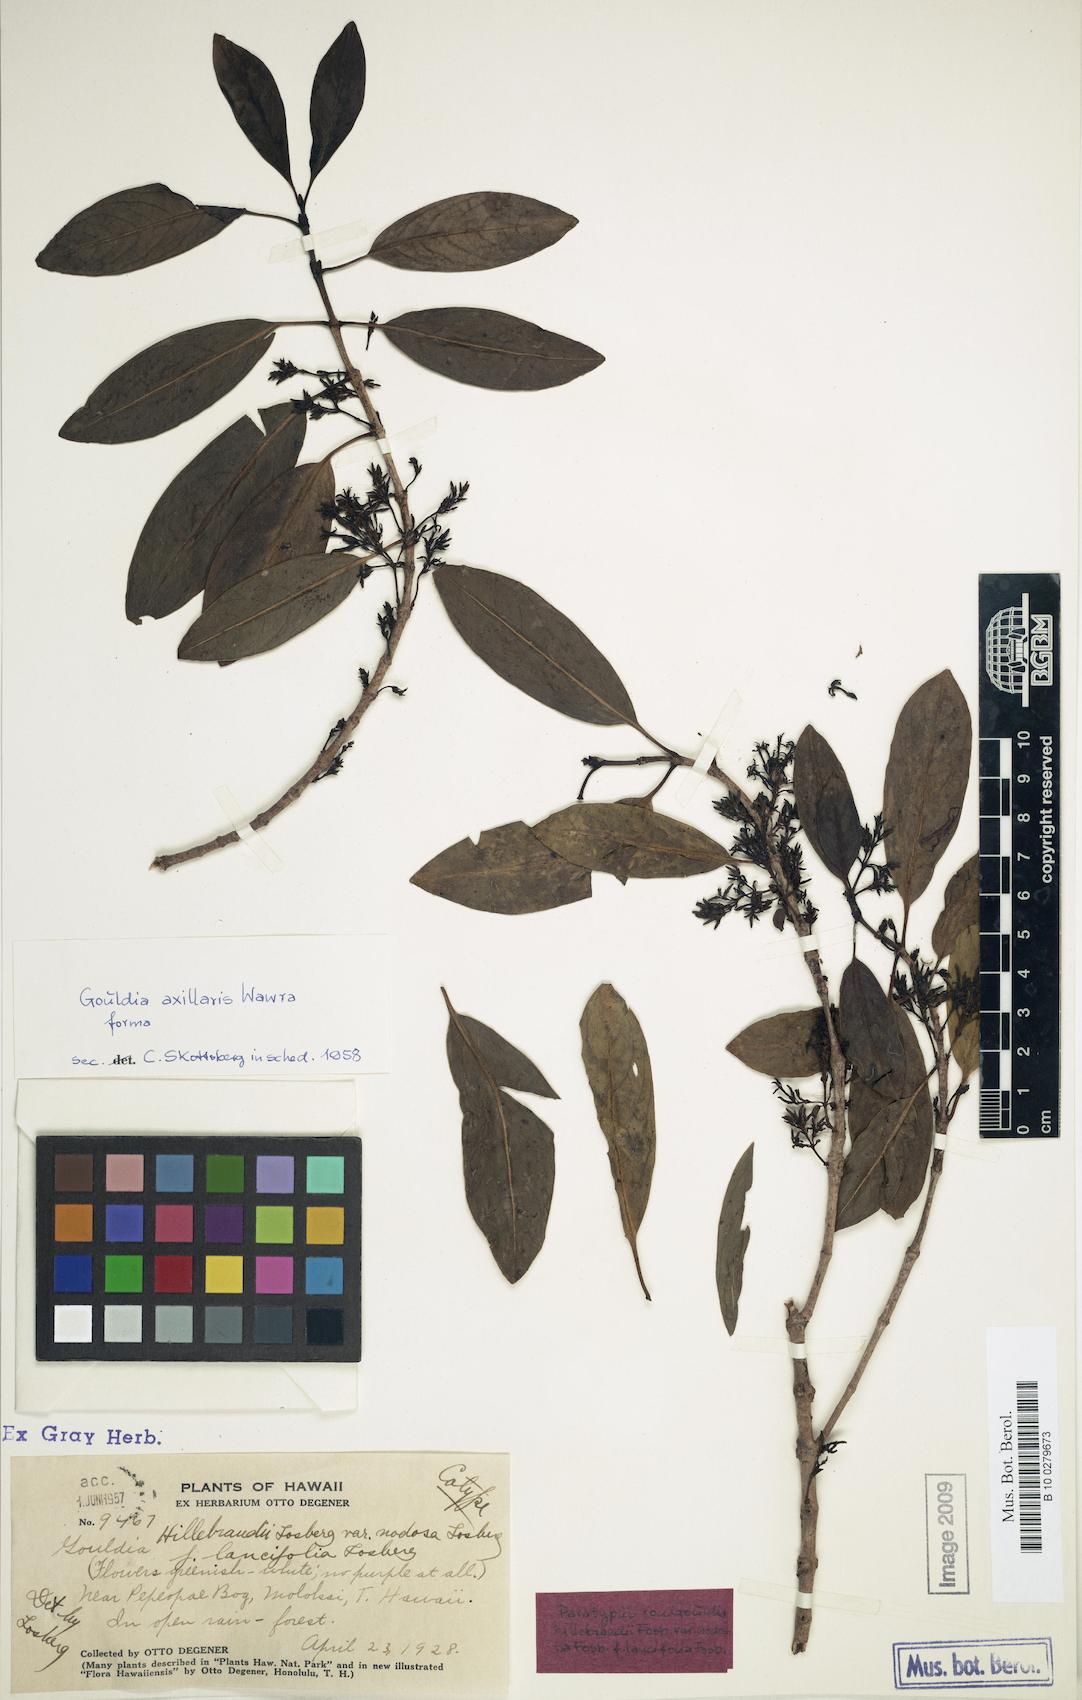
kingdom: Plantae
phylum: Tracheophyta
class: Magnoliopsida
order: Gentianales
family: Rubiaceae
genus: Kadua
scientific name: Kadua axillaris
